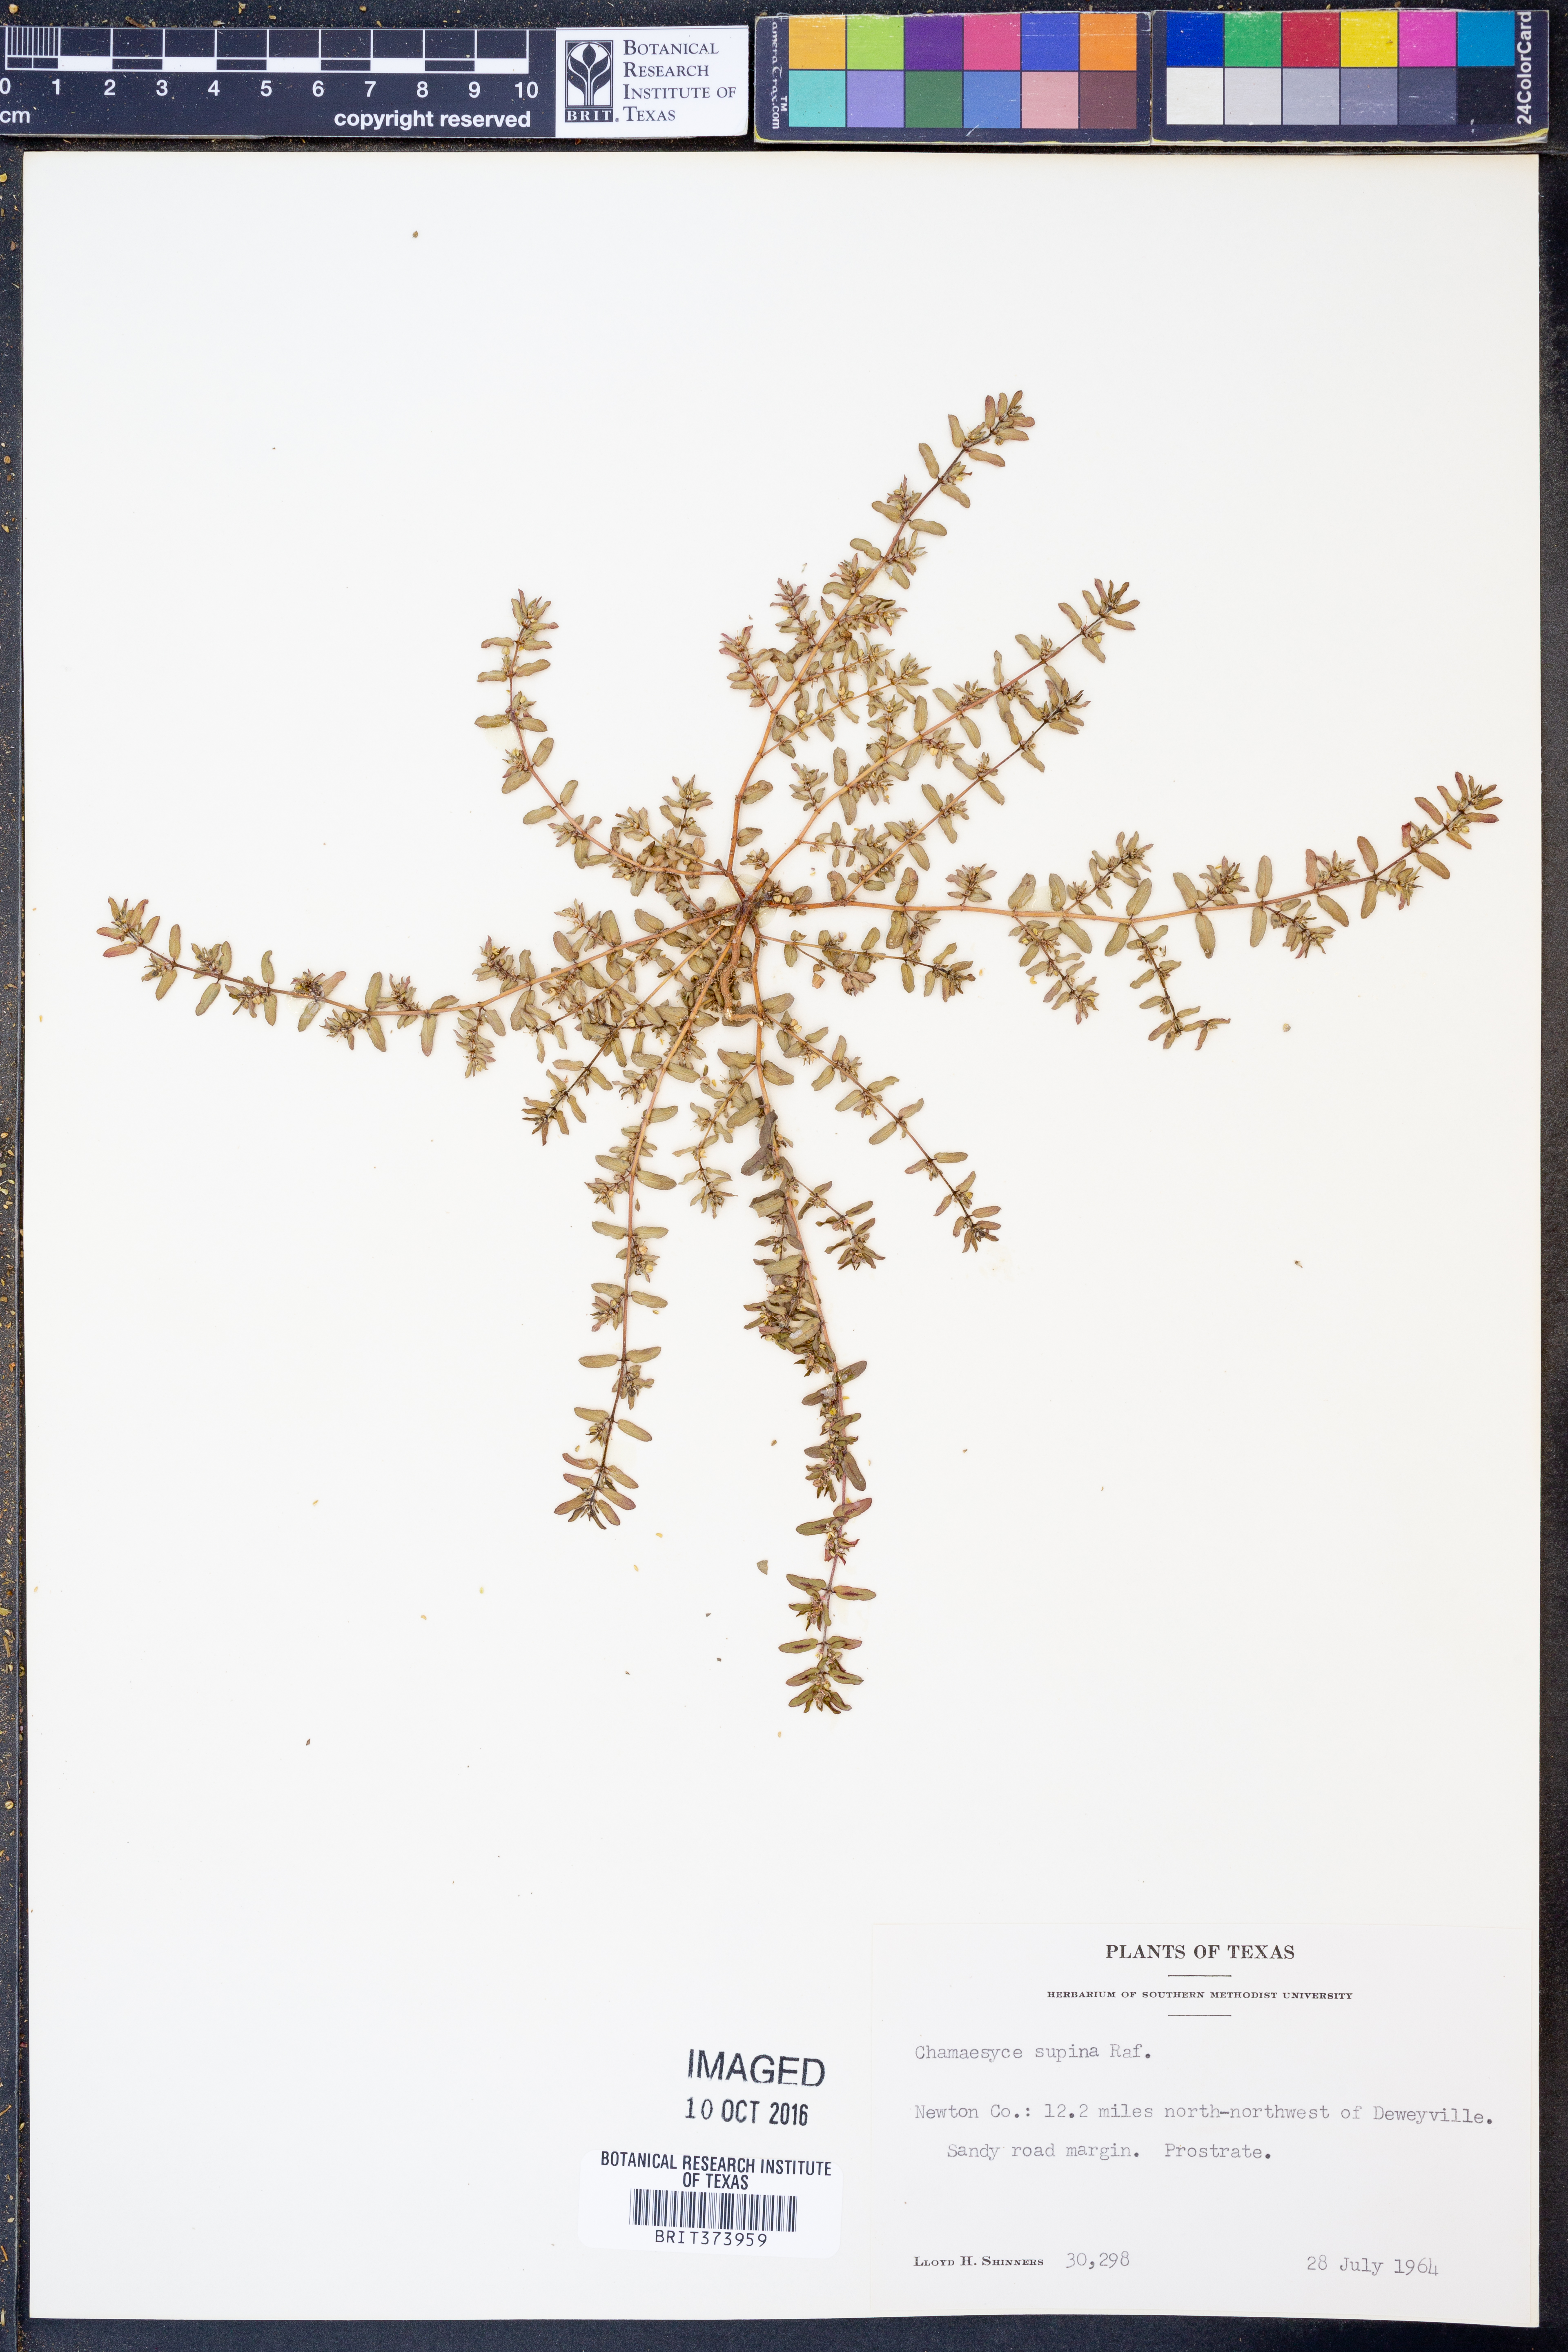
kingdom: Plantae
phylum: Tracheophyta
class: Magnoliopsida
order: Malpighiales
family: Euphorbiaceae
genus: Euphorbia
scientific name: Euphorbia maculata
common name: Spotted spurge
